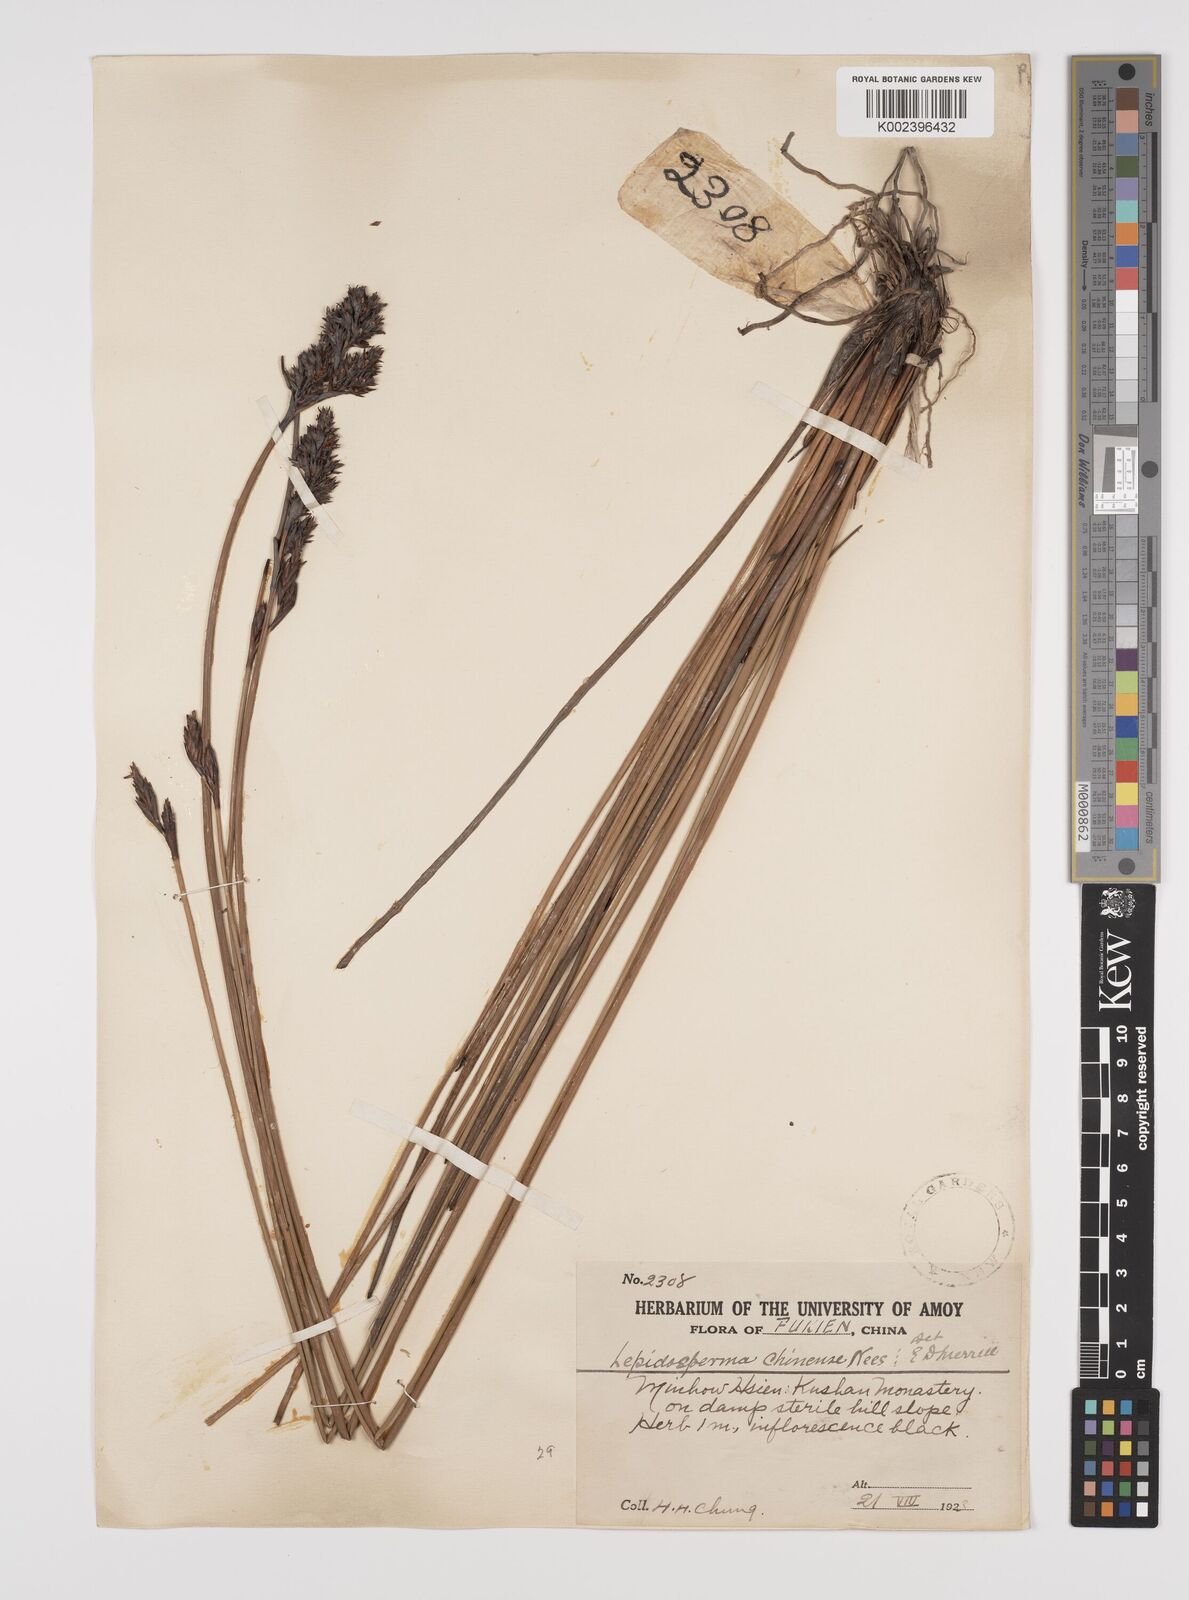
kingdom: Plantae
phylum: Tracheophyta
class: Liliopsida
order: Poales
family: Cyperaceae
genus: Lepidosperma
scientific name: Lepidosperma chinense
